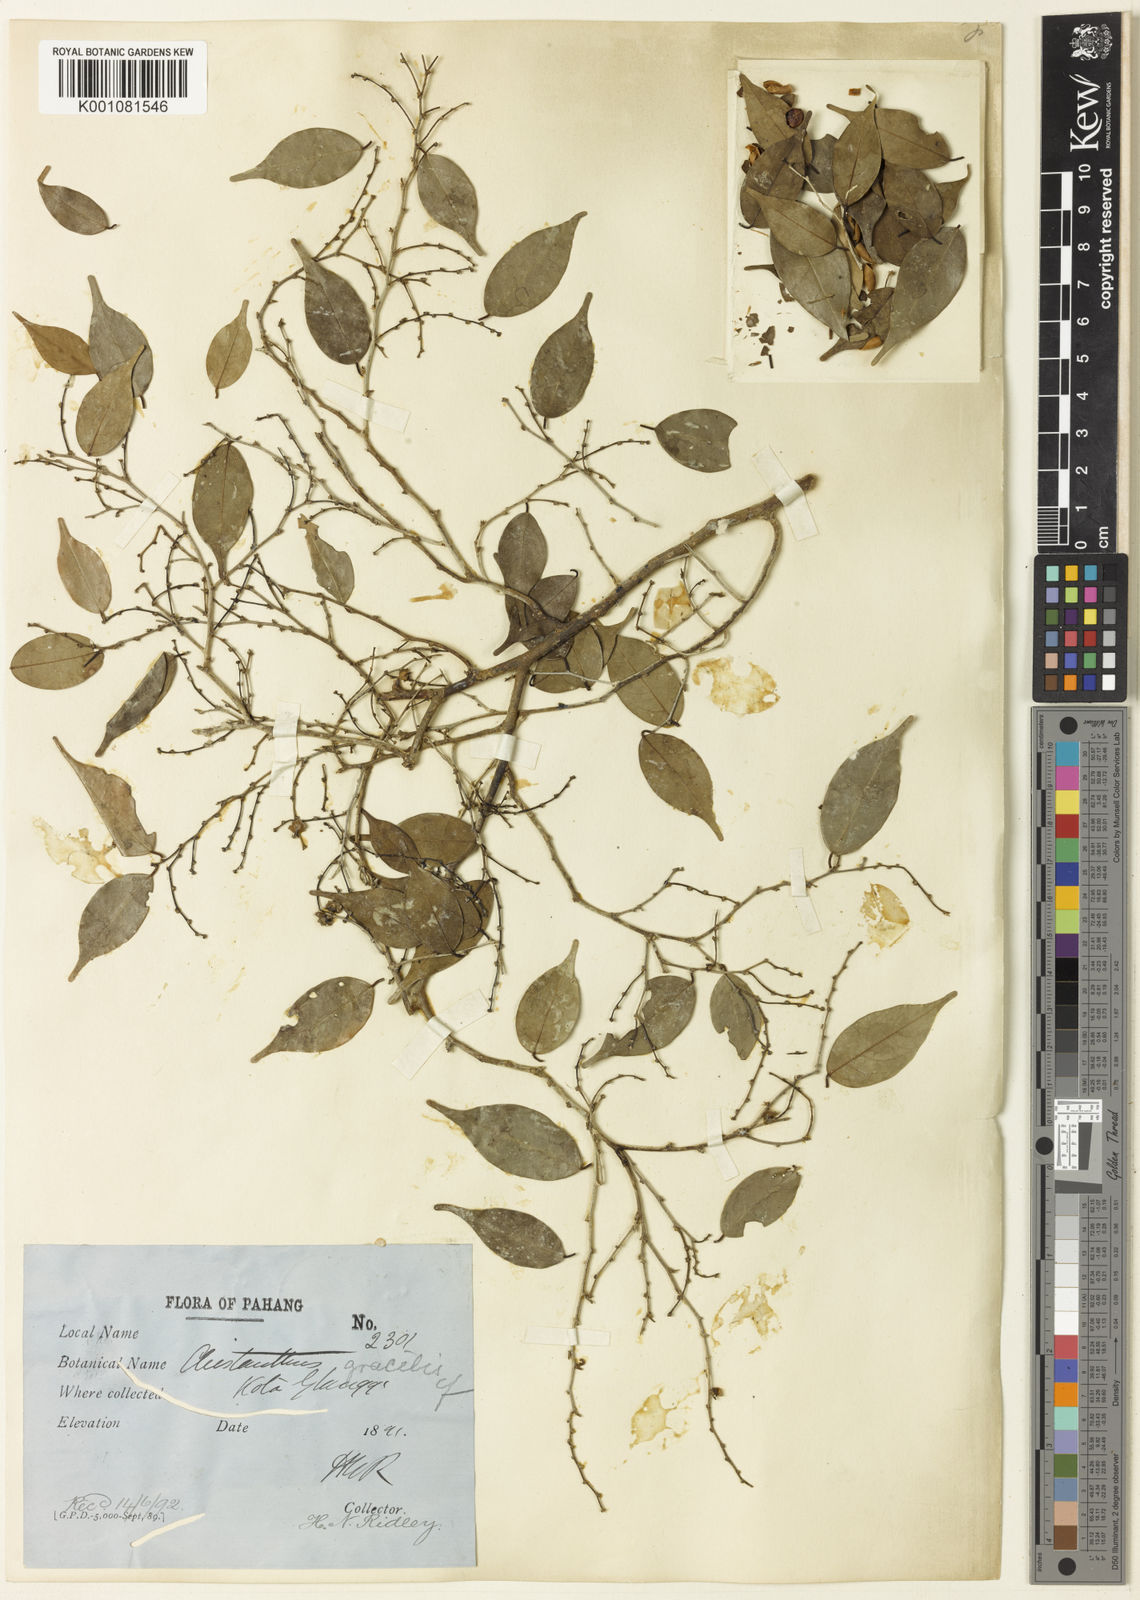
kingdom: Plantae
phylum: Tracheophyta
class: Magnoliopsida
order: Malpighiales
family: Phyllanthaceae
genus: Cleistanthus
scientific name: Cleistanthus gracilis
